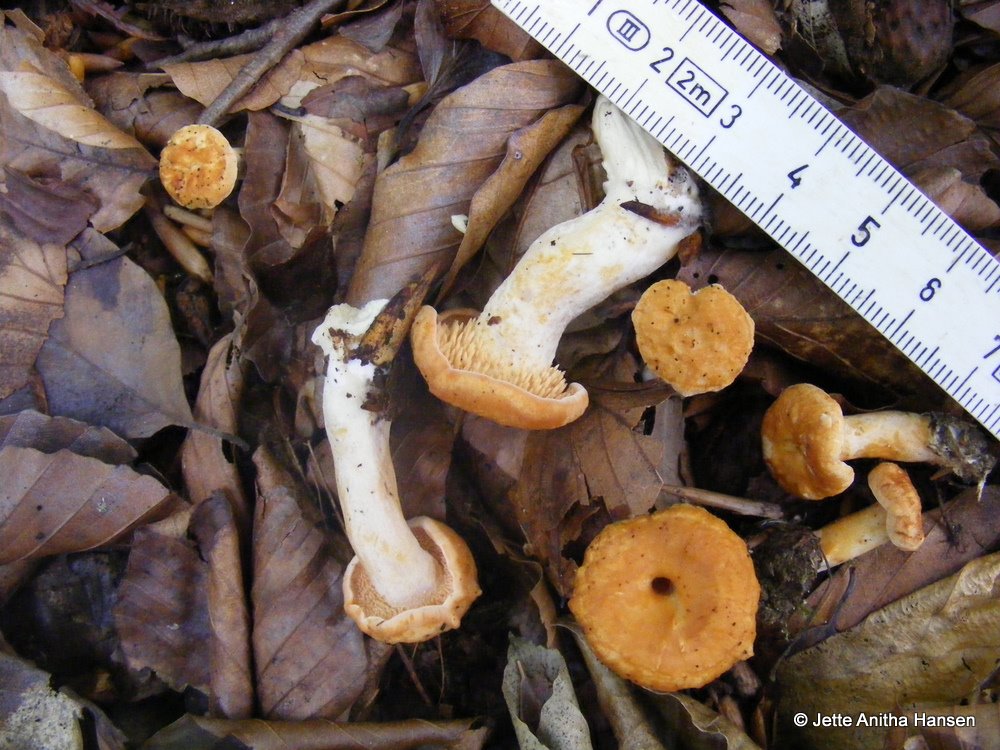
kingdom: Fungi
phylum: Basidiomycota
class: Agaricomycetes
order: Cantharellales
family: Hydnaceae
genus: Hydnum
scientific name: Hydnum rufescens
